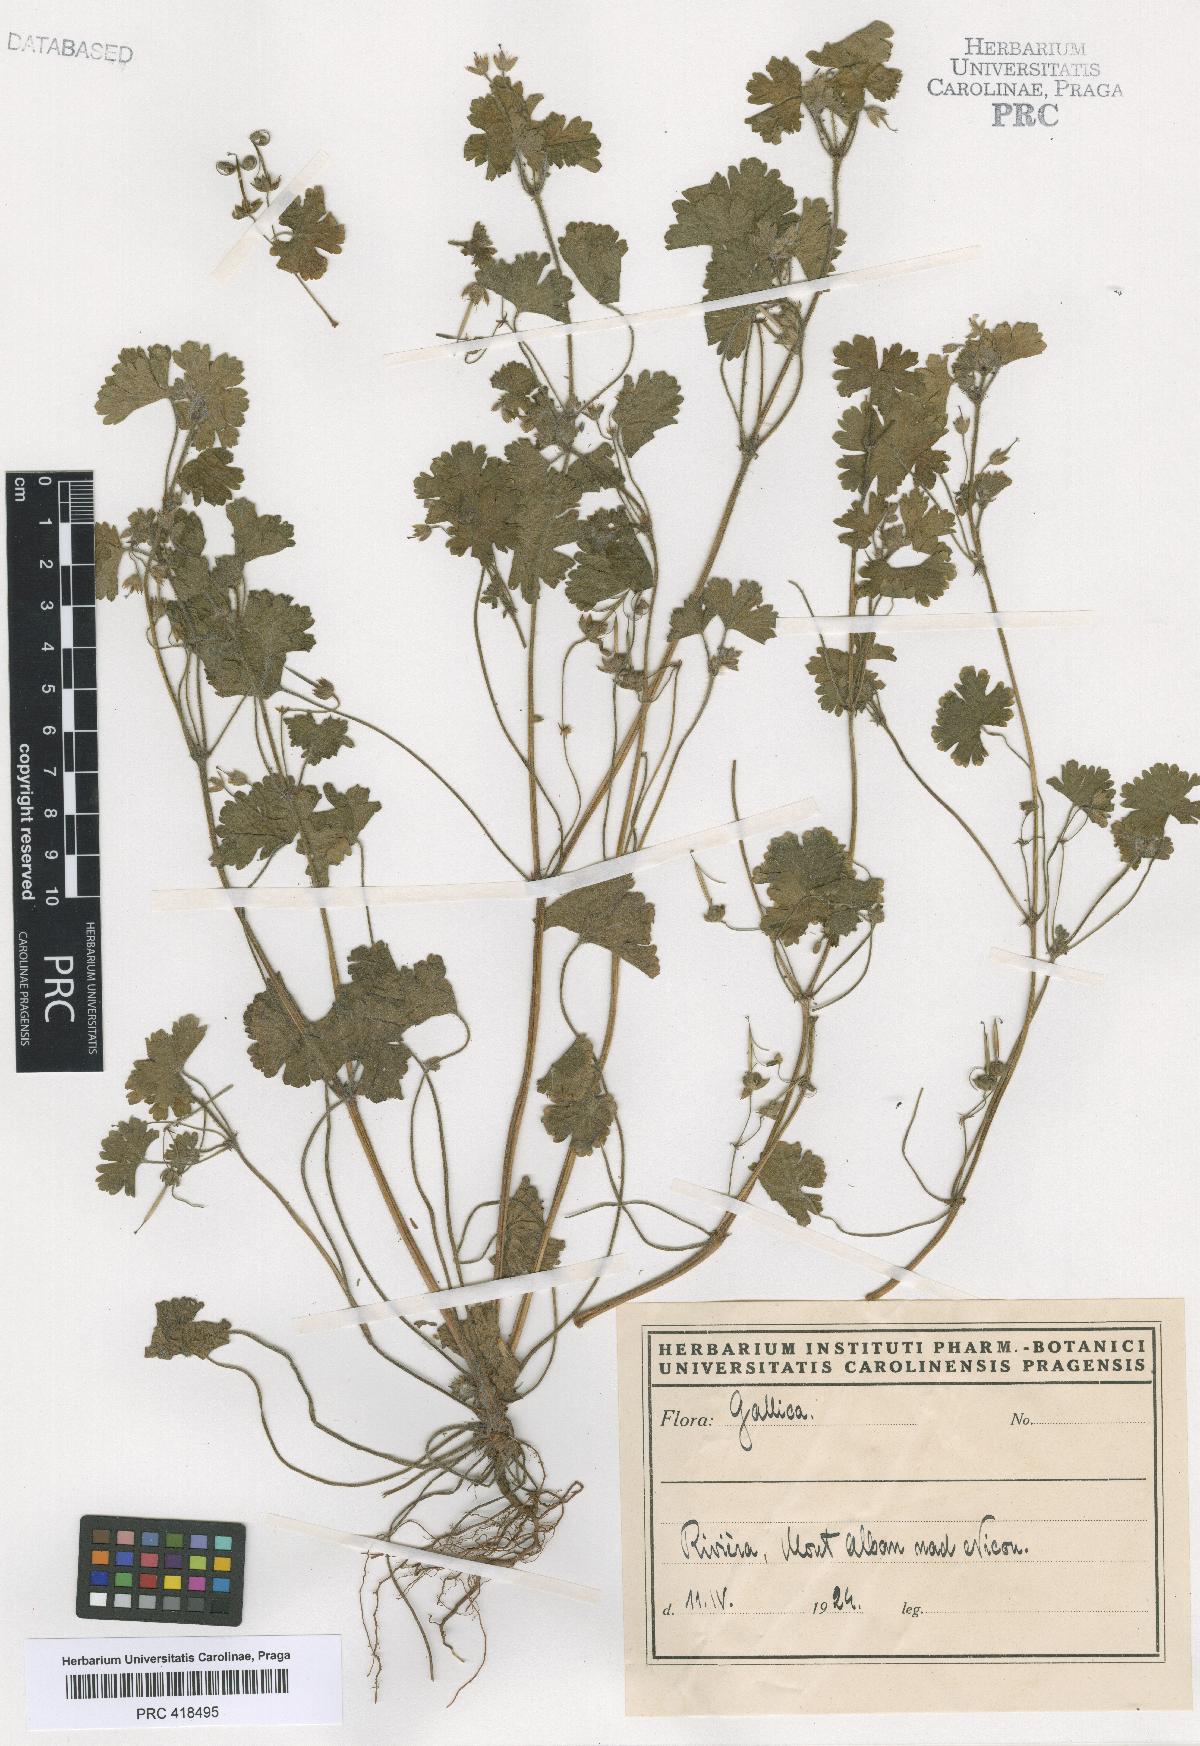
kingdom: Plantae
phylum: Tracheophyta
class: Magnoliopsida
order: Geraniales
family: Geraniaceae
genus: Geranium
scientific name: Geranium rotundifolium
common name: Round-leaved crane's-bill
